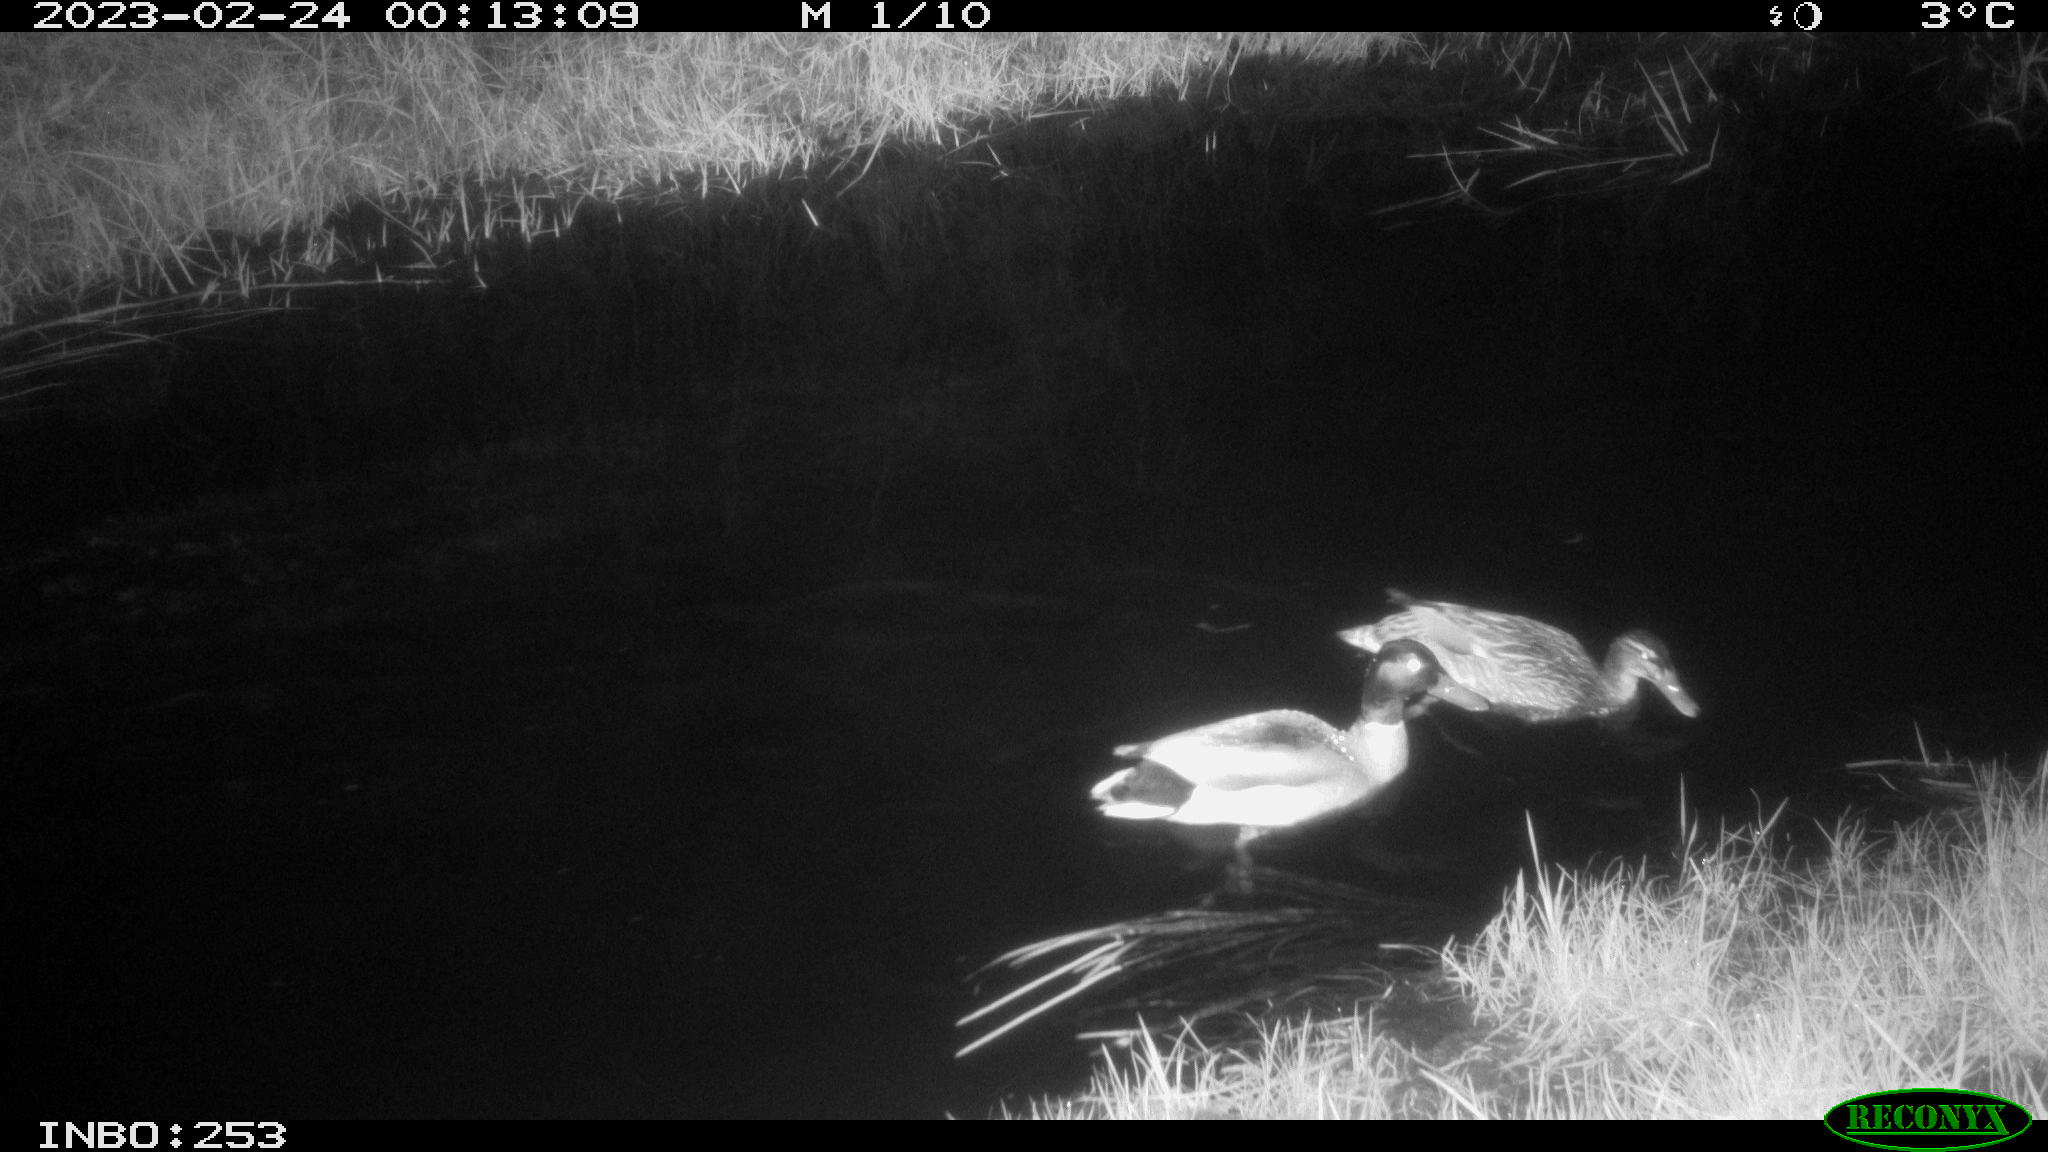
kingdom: Animalia
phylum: Chordata
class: Aves
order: Anseriformes
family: Anatidae
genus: Anas
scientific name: Anas
